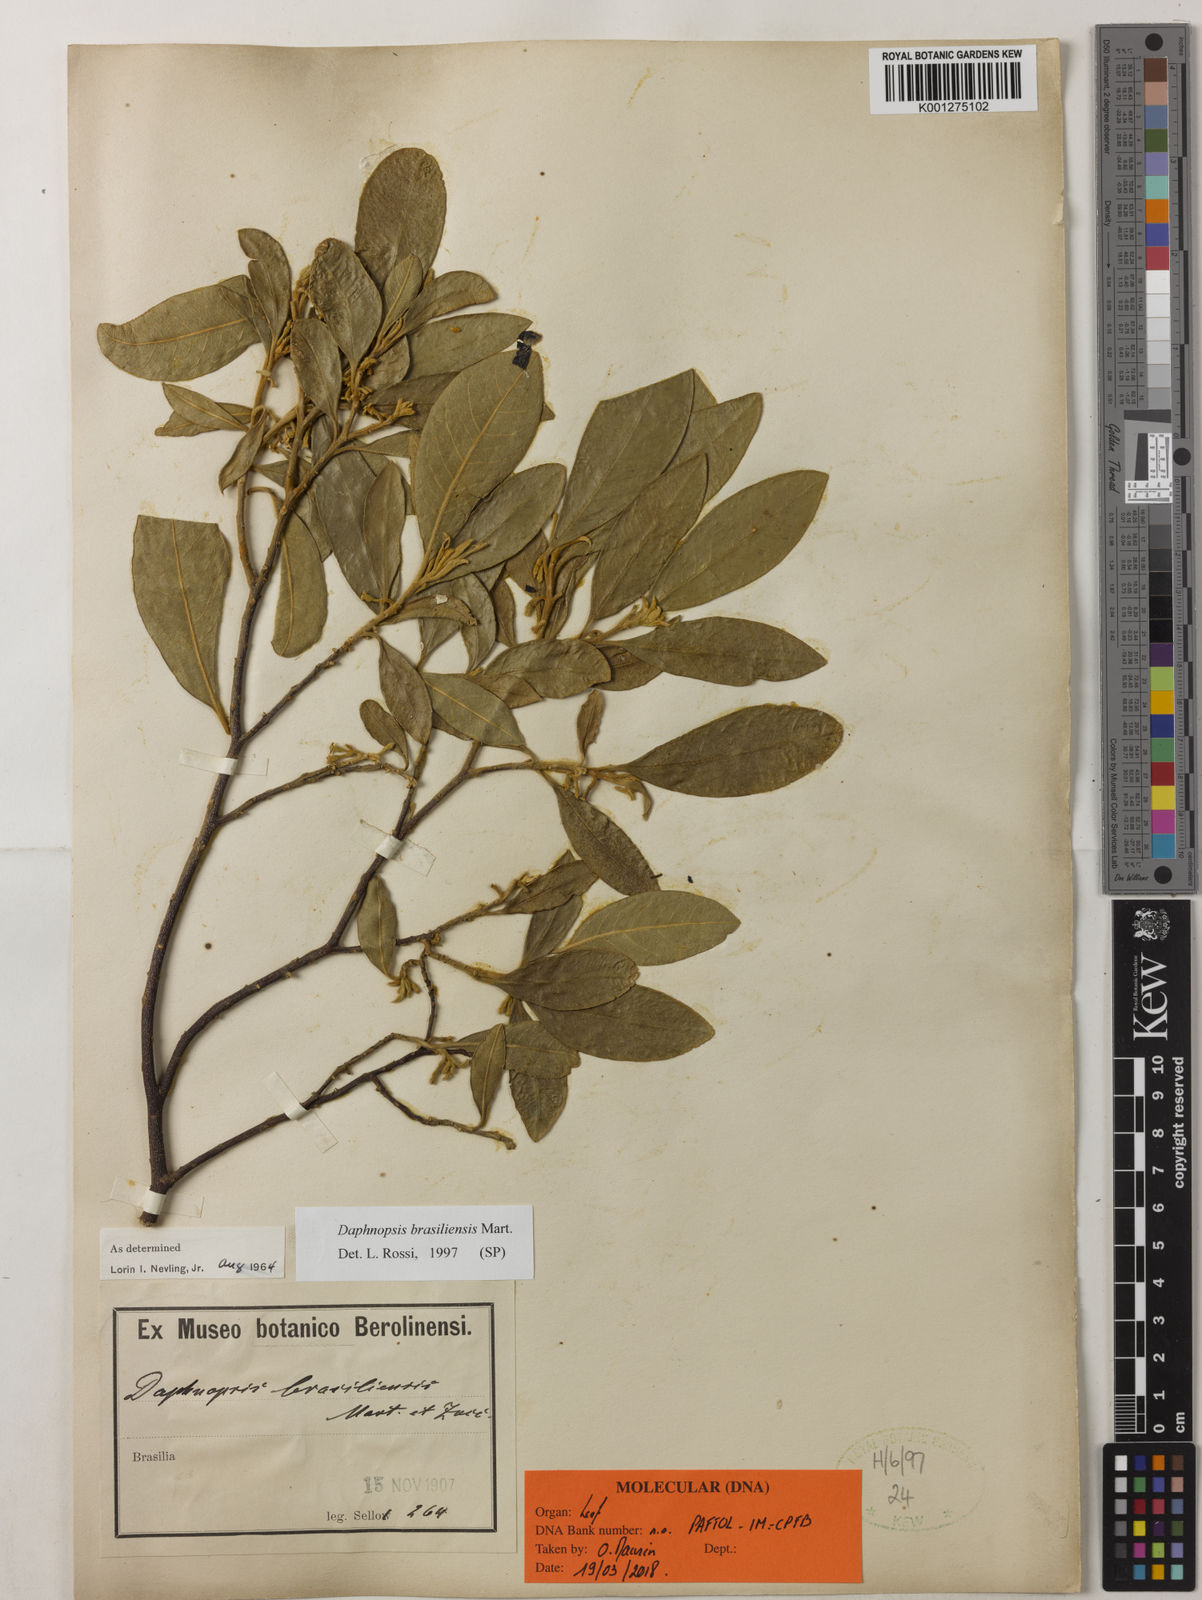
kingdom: Plantae
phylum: Tracheophyta
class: Magnoliopsida
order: Malvales
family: Thymelaeaceae
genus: Daphnopsis
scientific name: Daphnopsis brasiliensis
